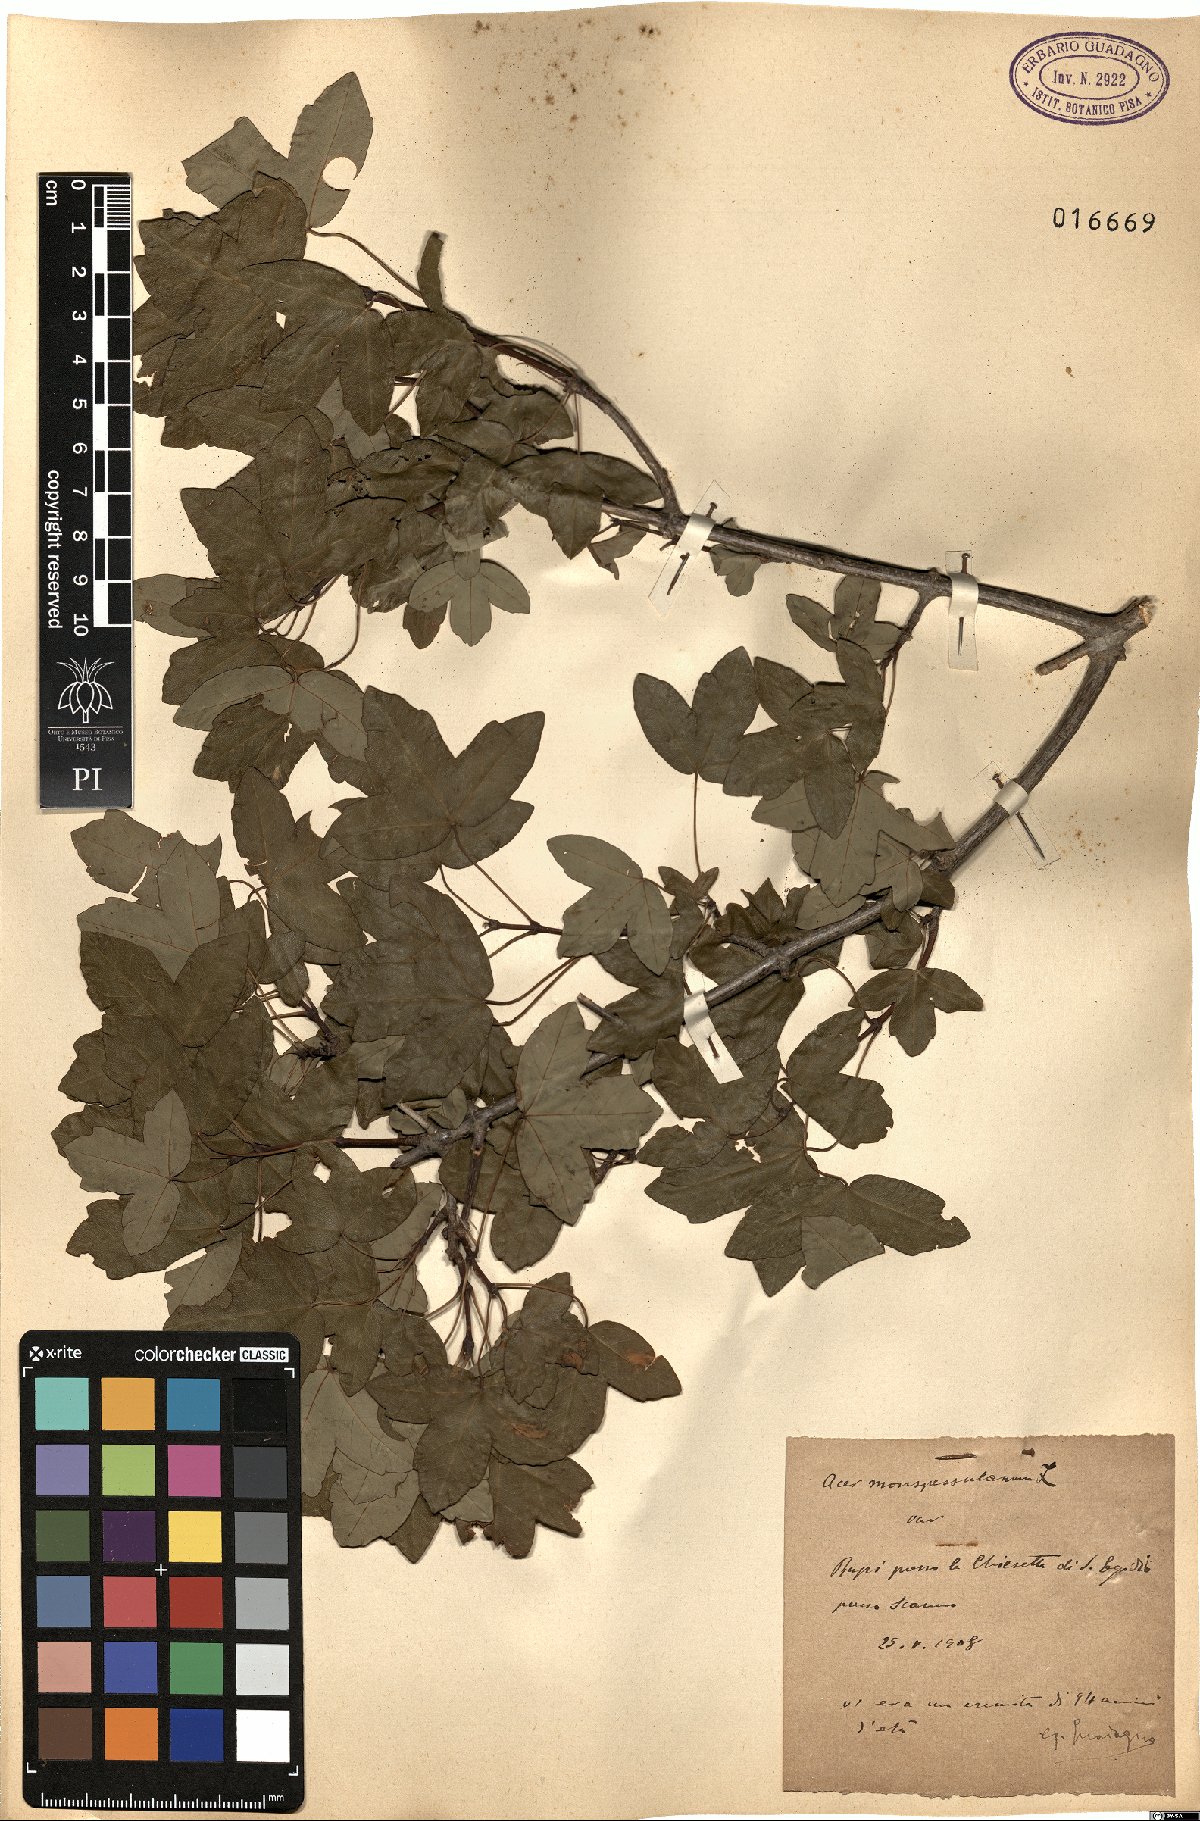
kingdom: Plantae
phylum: Tracheophyta
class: Magnoliopsida
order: Sapindales
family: Sapindaceae
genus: Acer
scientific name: Acer monspessulanum
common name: Montpellier maple
